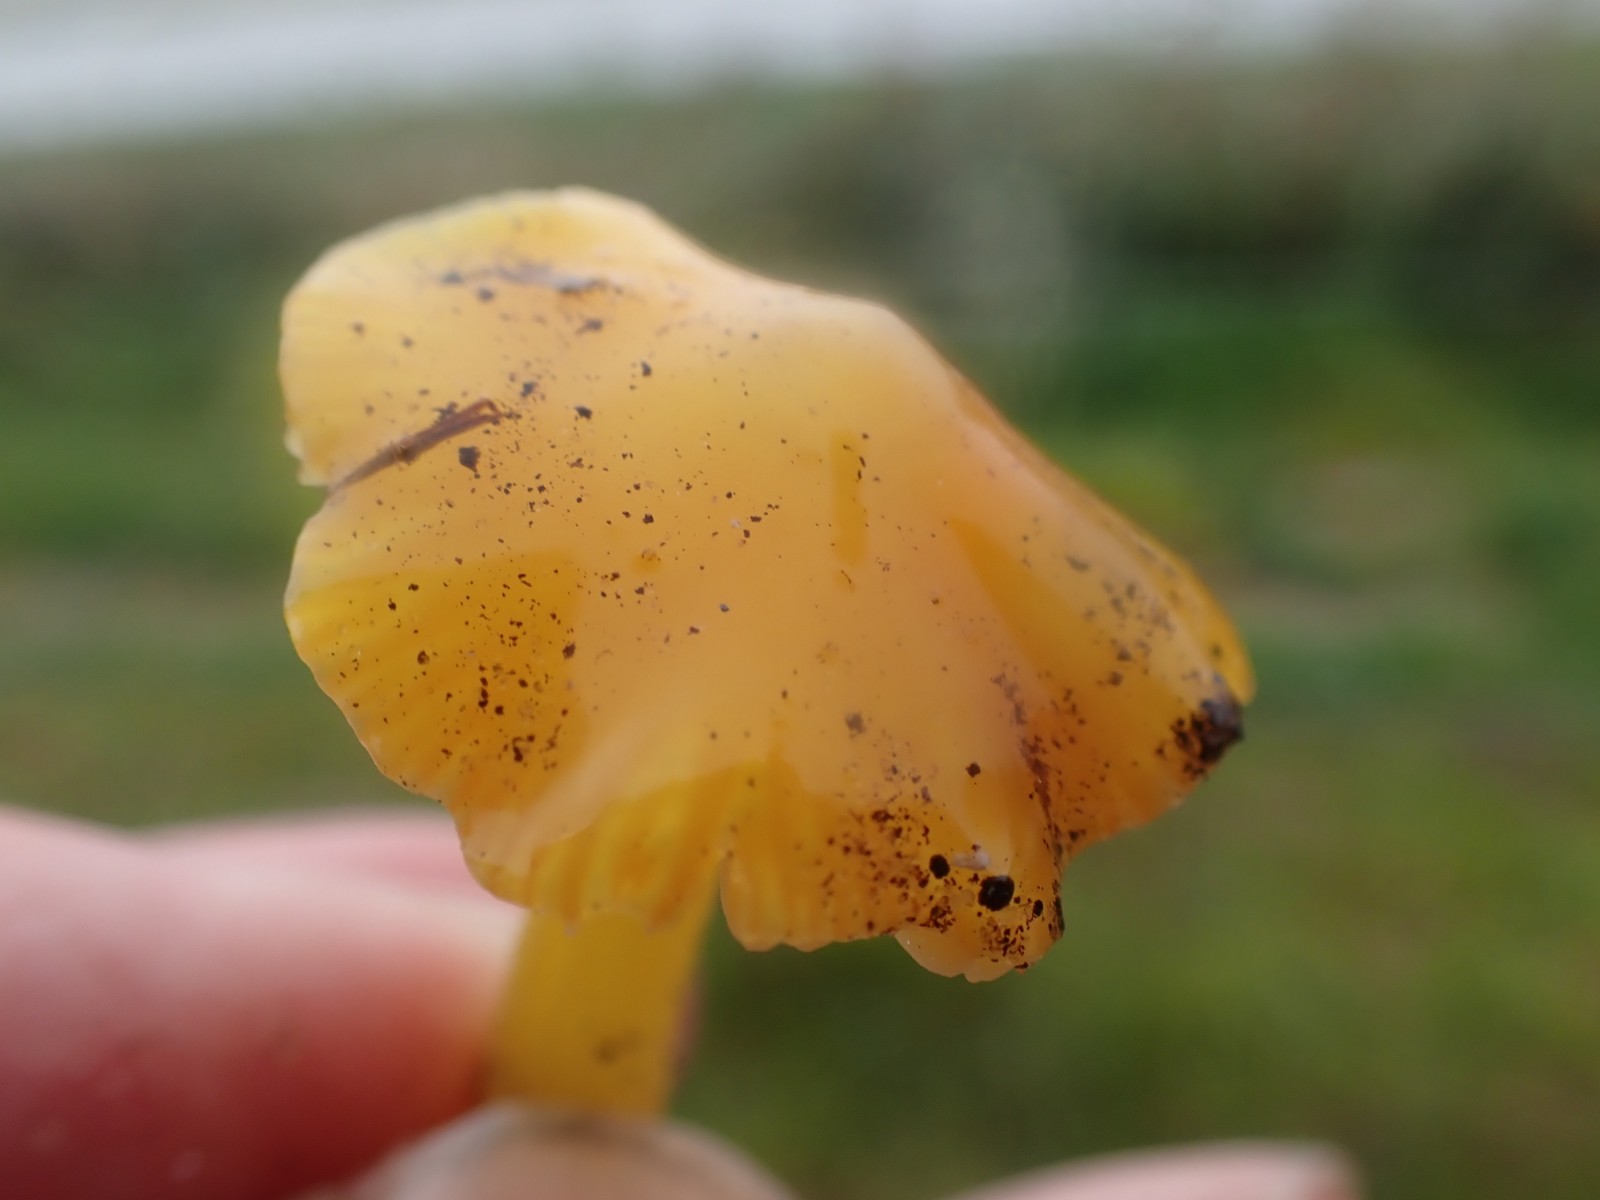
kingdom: Fungi
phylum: Basidiomycota
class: Agaricomycetes
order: Agaricales
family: Hygrophoraceae
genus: Hygrocybe
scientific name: Hygrocybe acutoconica
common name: spidspuklet vokshat
